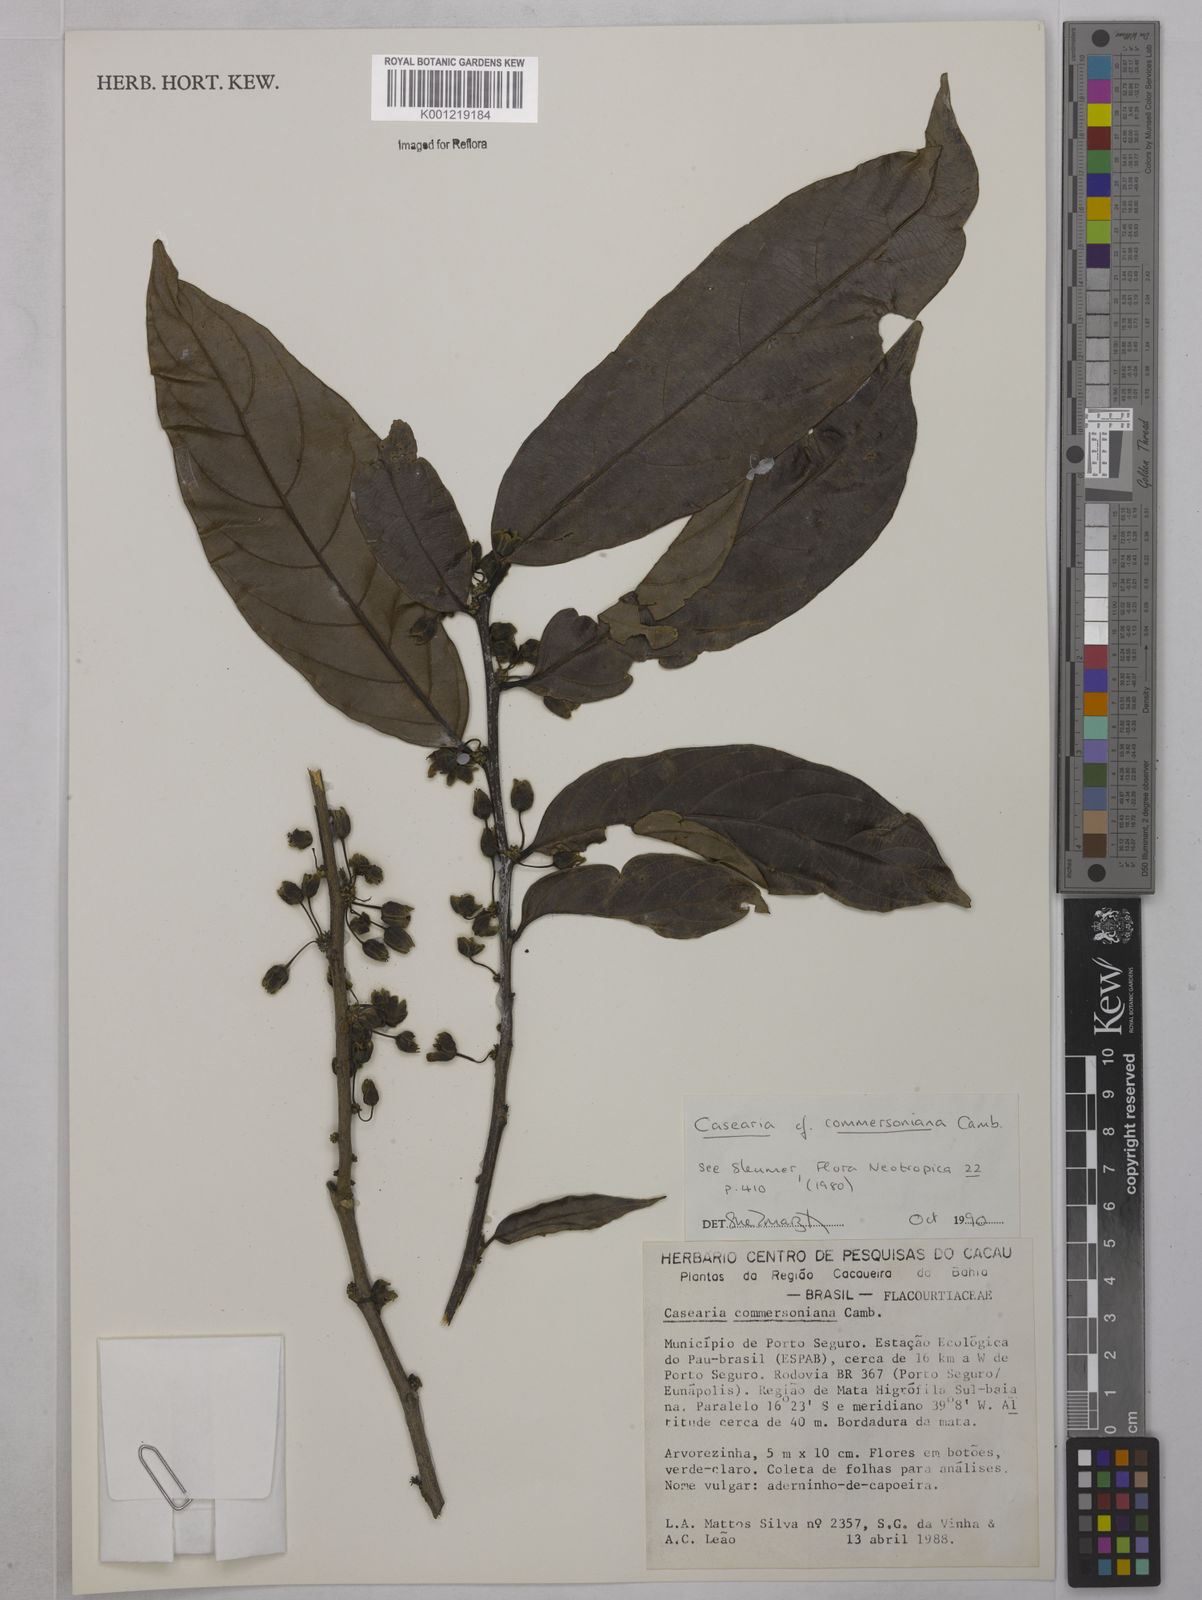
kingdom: Plantae
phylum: Tracheophyta
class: Magnoliopsida
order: Malpighiales
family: Salicaceae
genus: Piparea
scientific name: Piparea dentata
